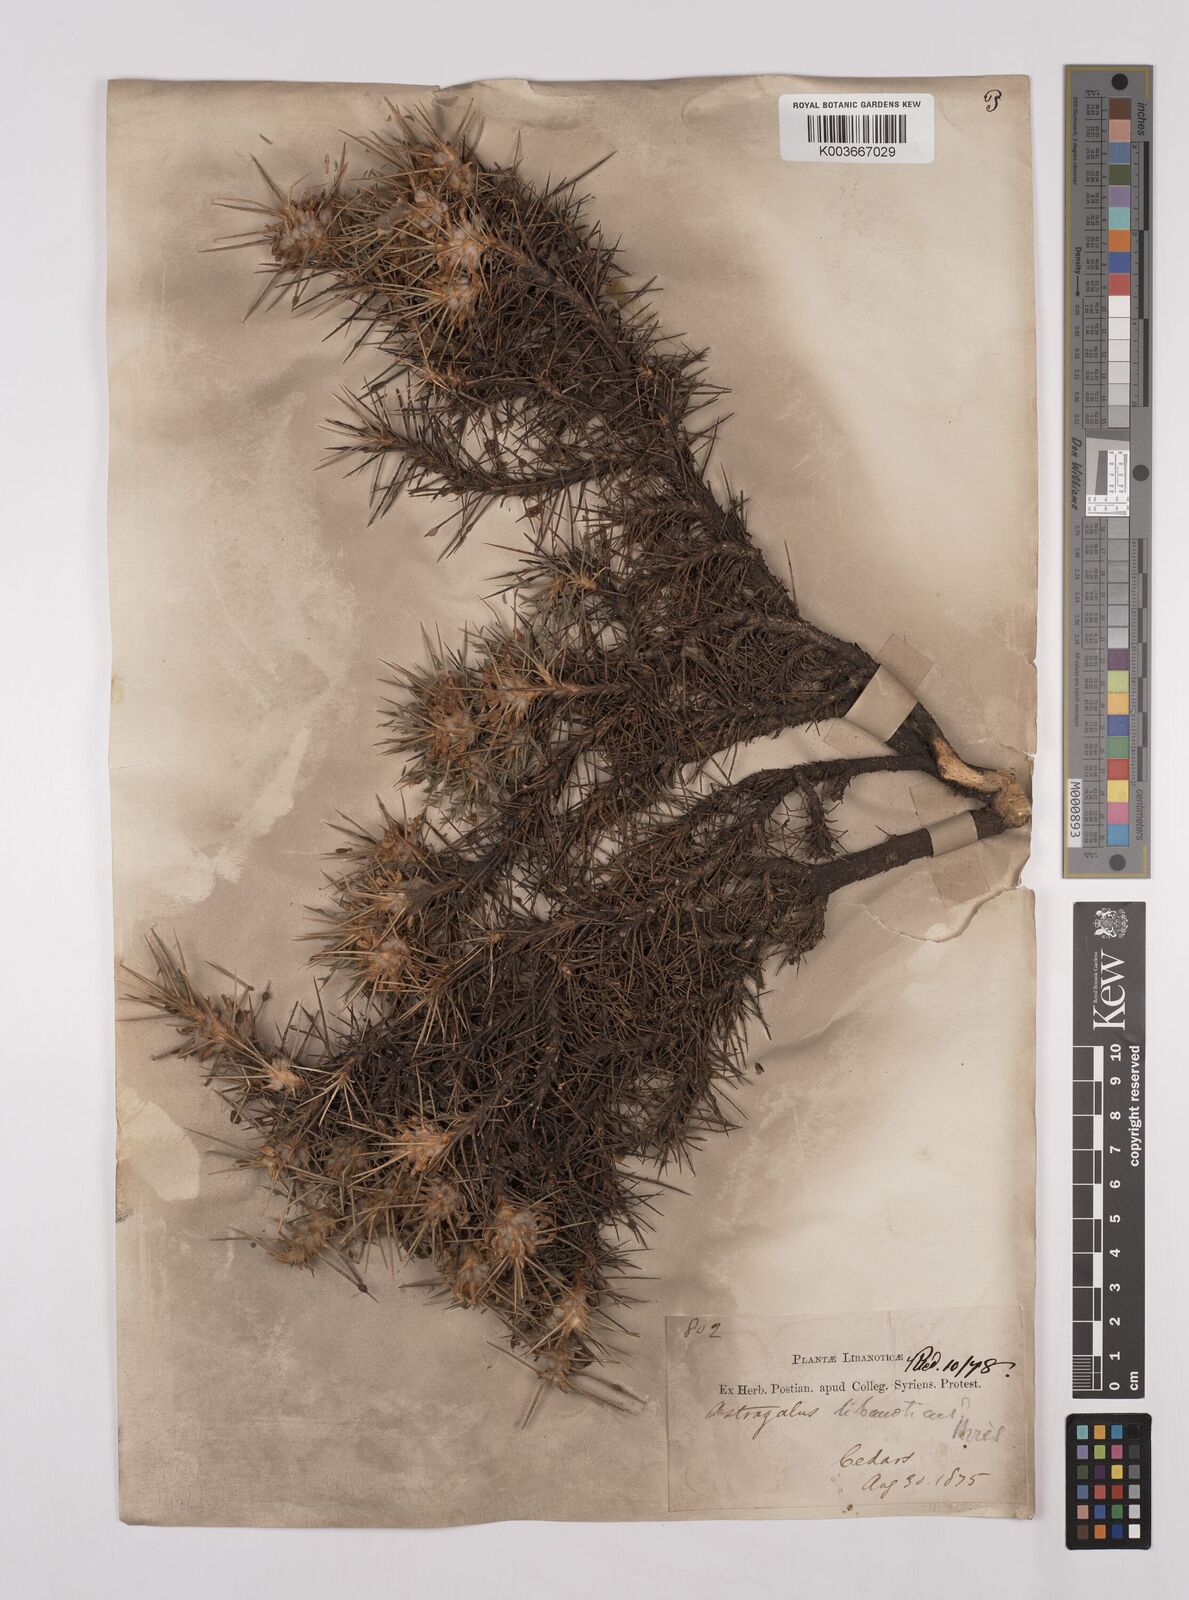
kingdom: Plantae
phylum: Tracheophyta
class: Magnoliopsida
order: Fabales
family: Fabaceae
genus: Astragalus
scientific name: Astragalus echinus
